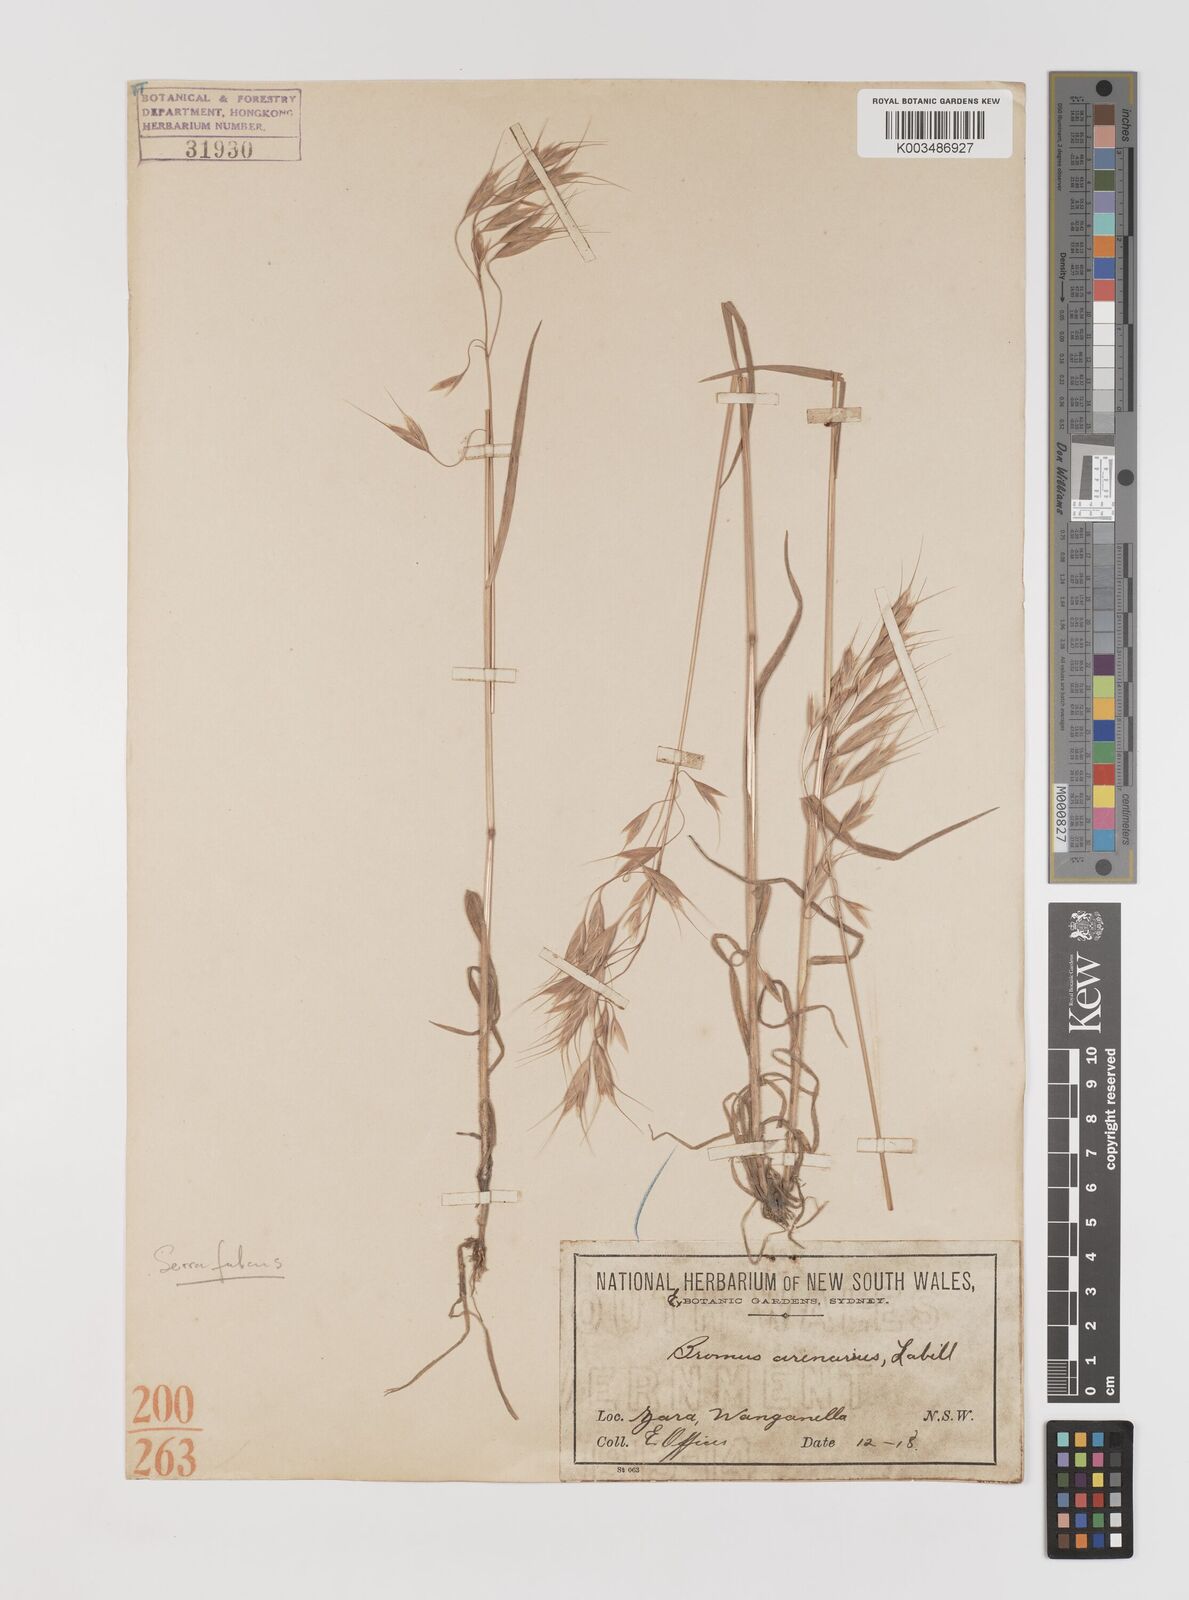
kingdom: Plantae
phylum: Tracheophyta
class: Liliopsida
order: Poales
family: Poaceae
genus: Bromus
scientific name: Bromus arenarius
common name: Australian brome
